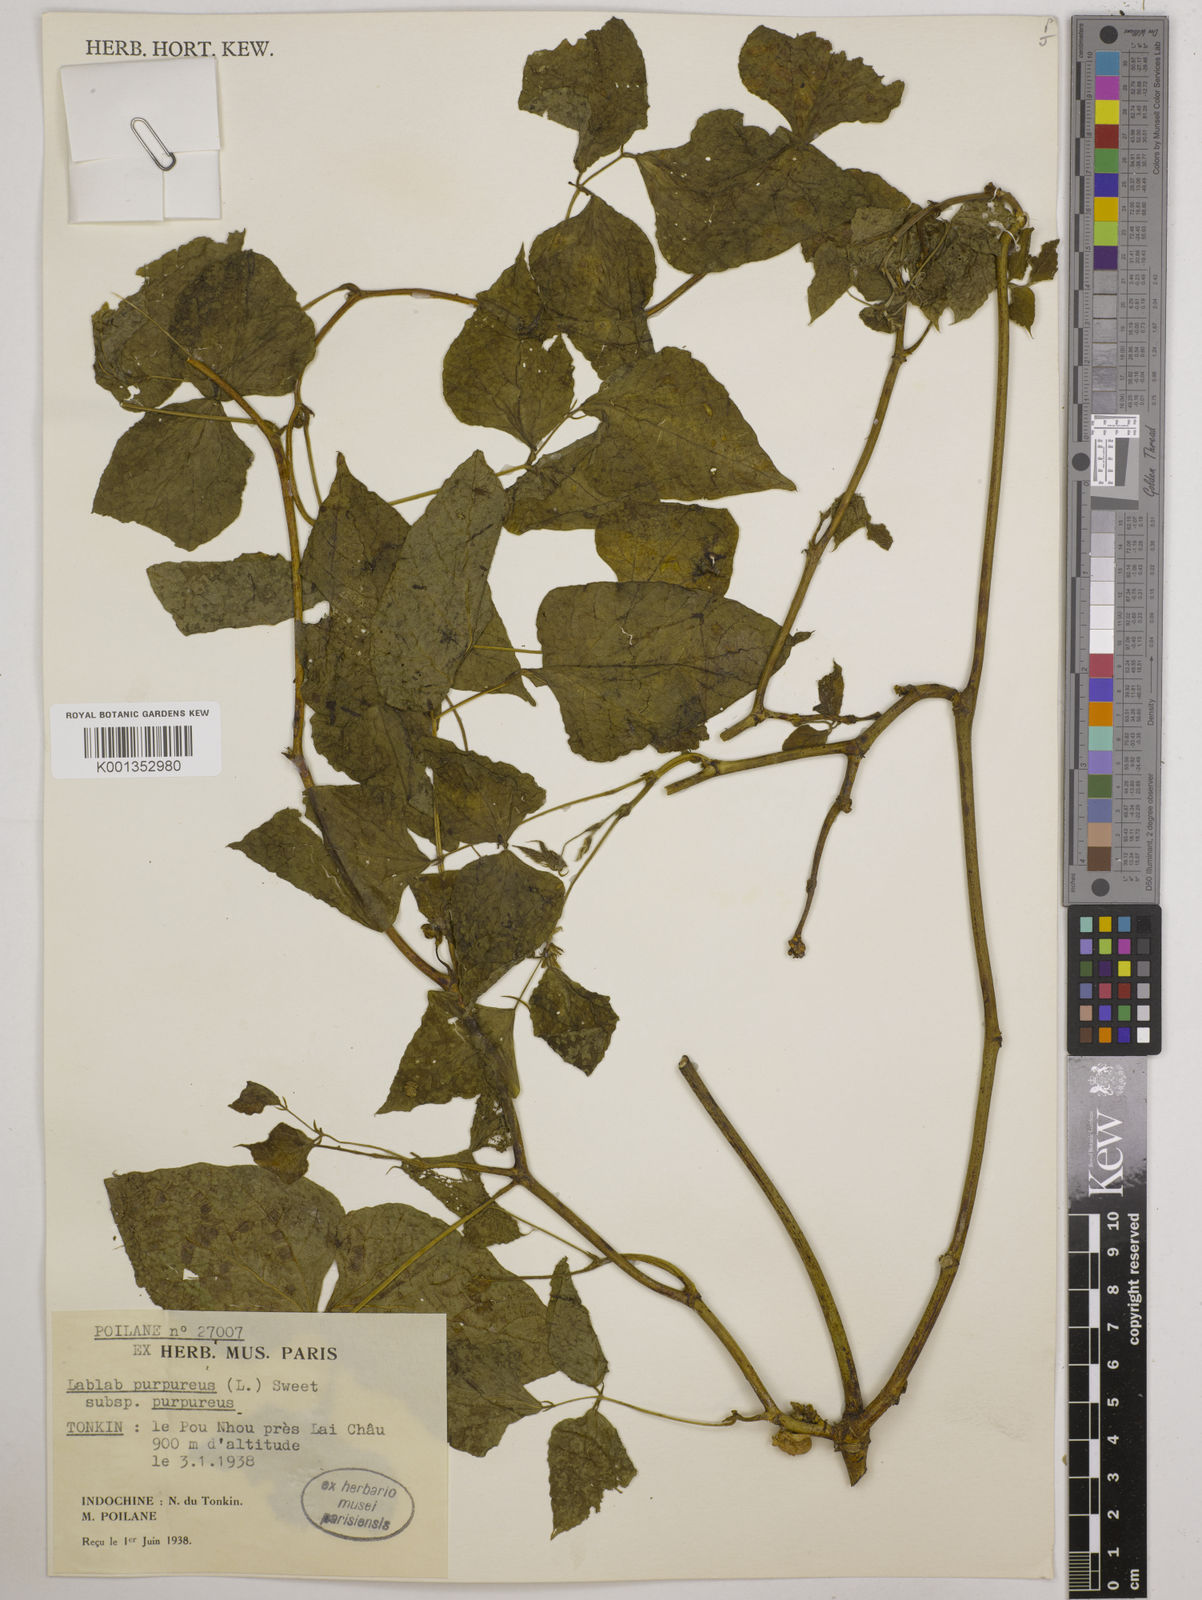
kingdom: Plantae
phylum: Tracheophyta
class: Magnoliopsida
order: Fabales
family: Fabaceae
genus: Lablab
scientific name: Lablab purpureus
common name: Lablab-bean
